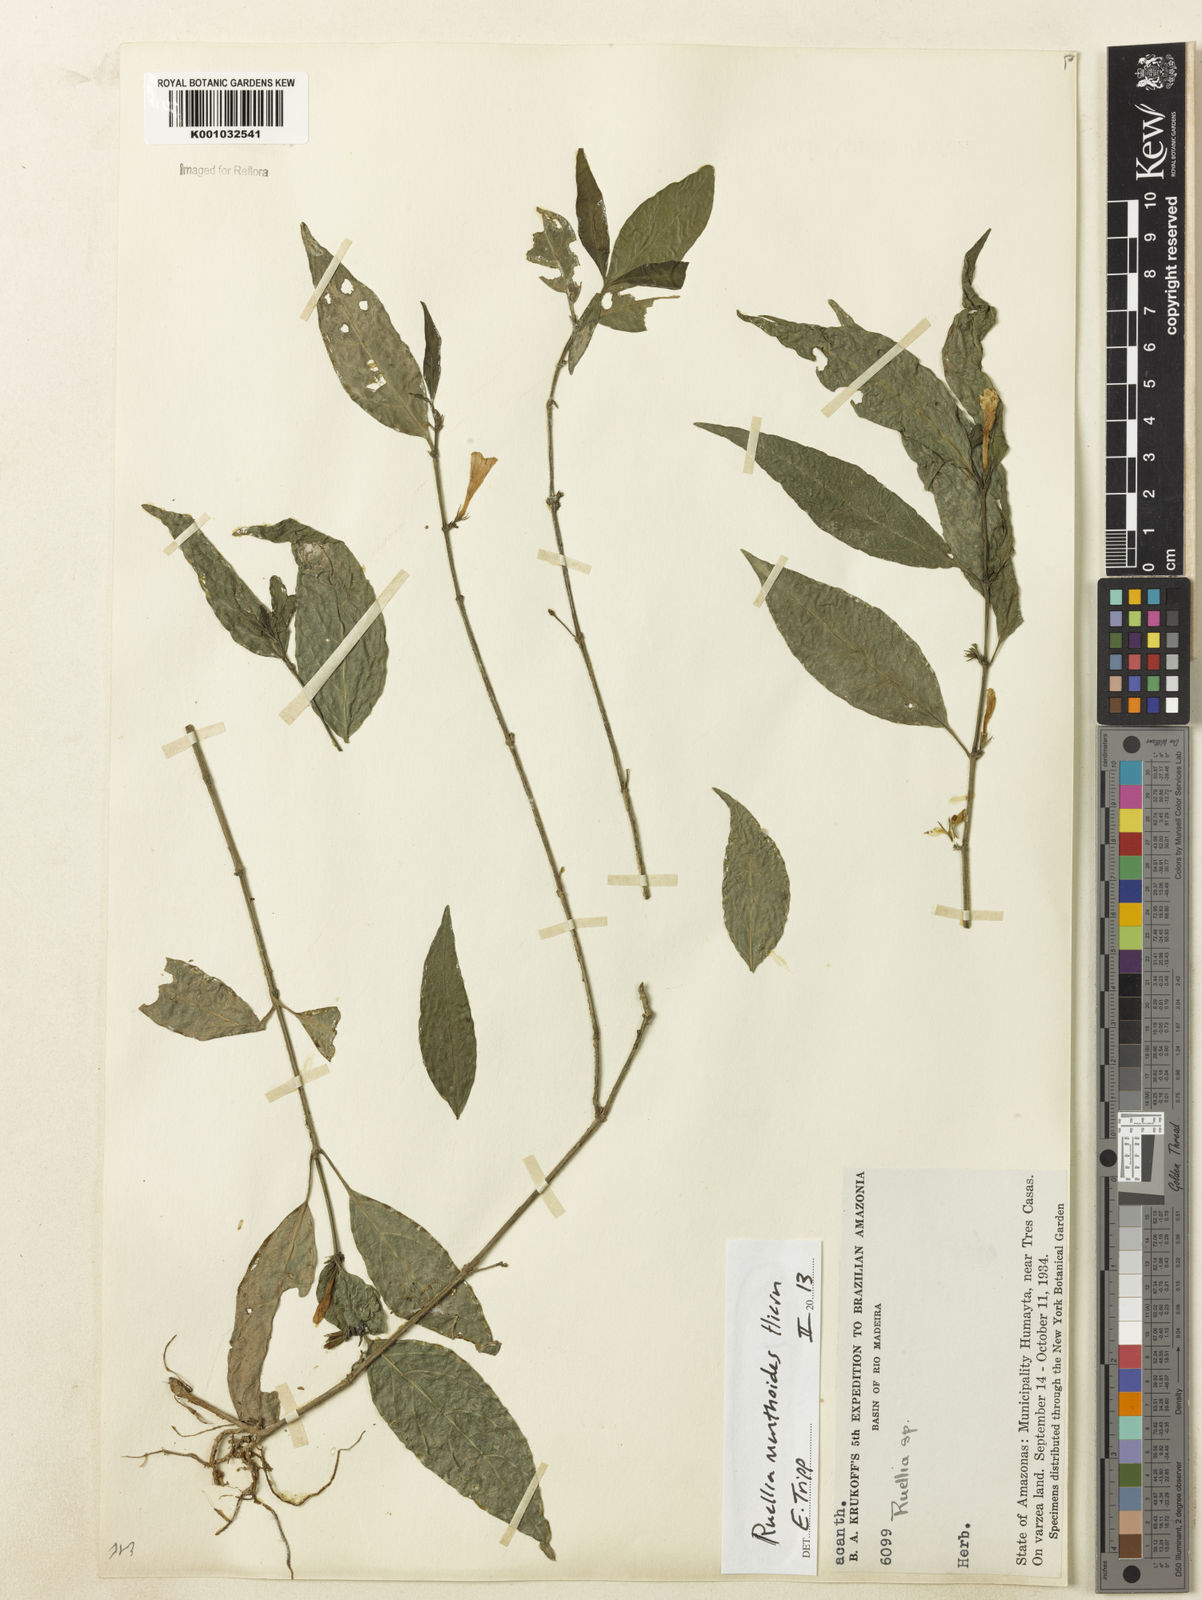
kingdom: Plantae
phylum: Tracheophyta
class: Magnoliopsida
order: Lamiales
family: Acanthaceae
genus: Ruellia
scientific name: Ruellia menthoides
